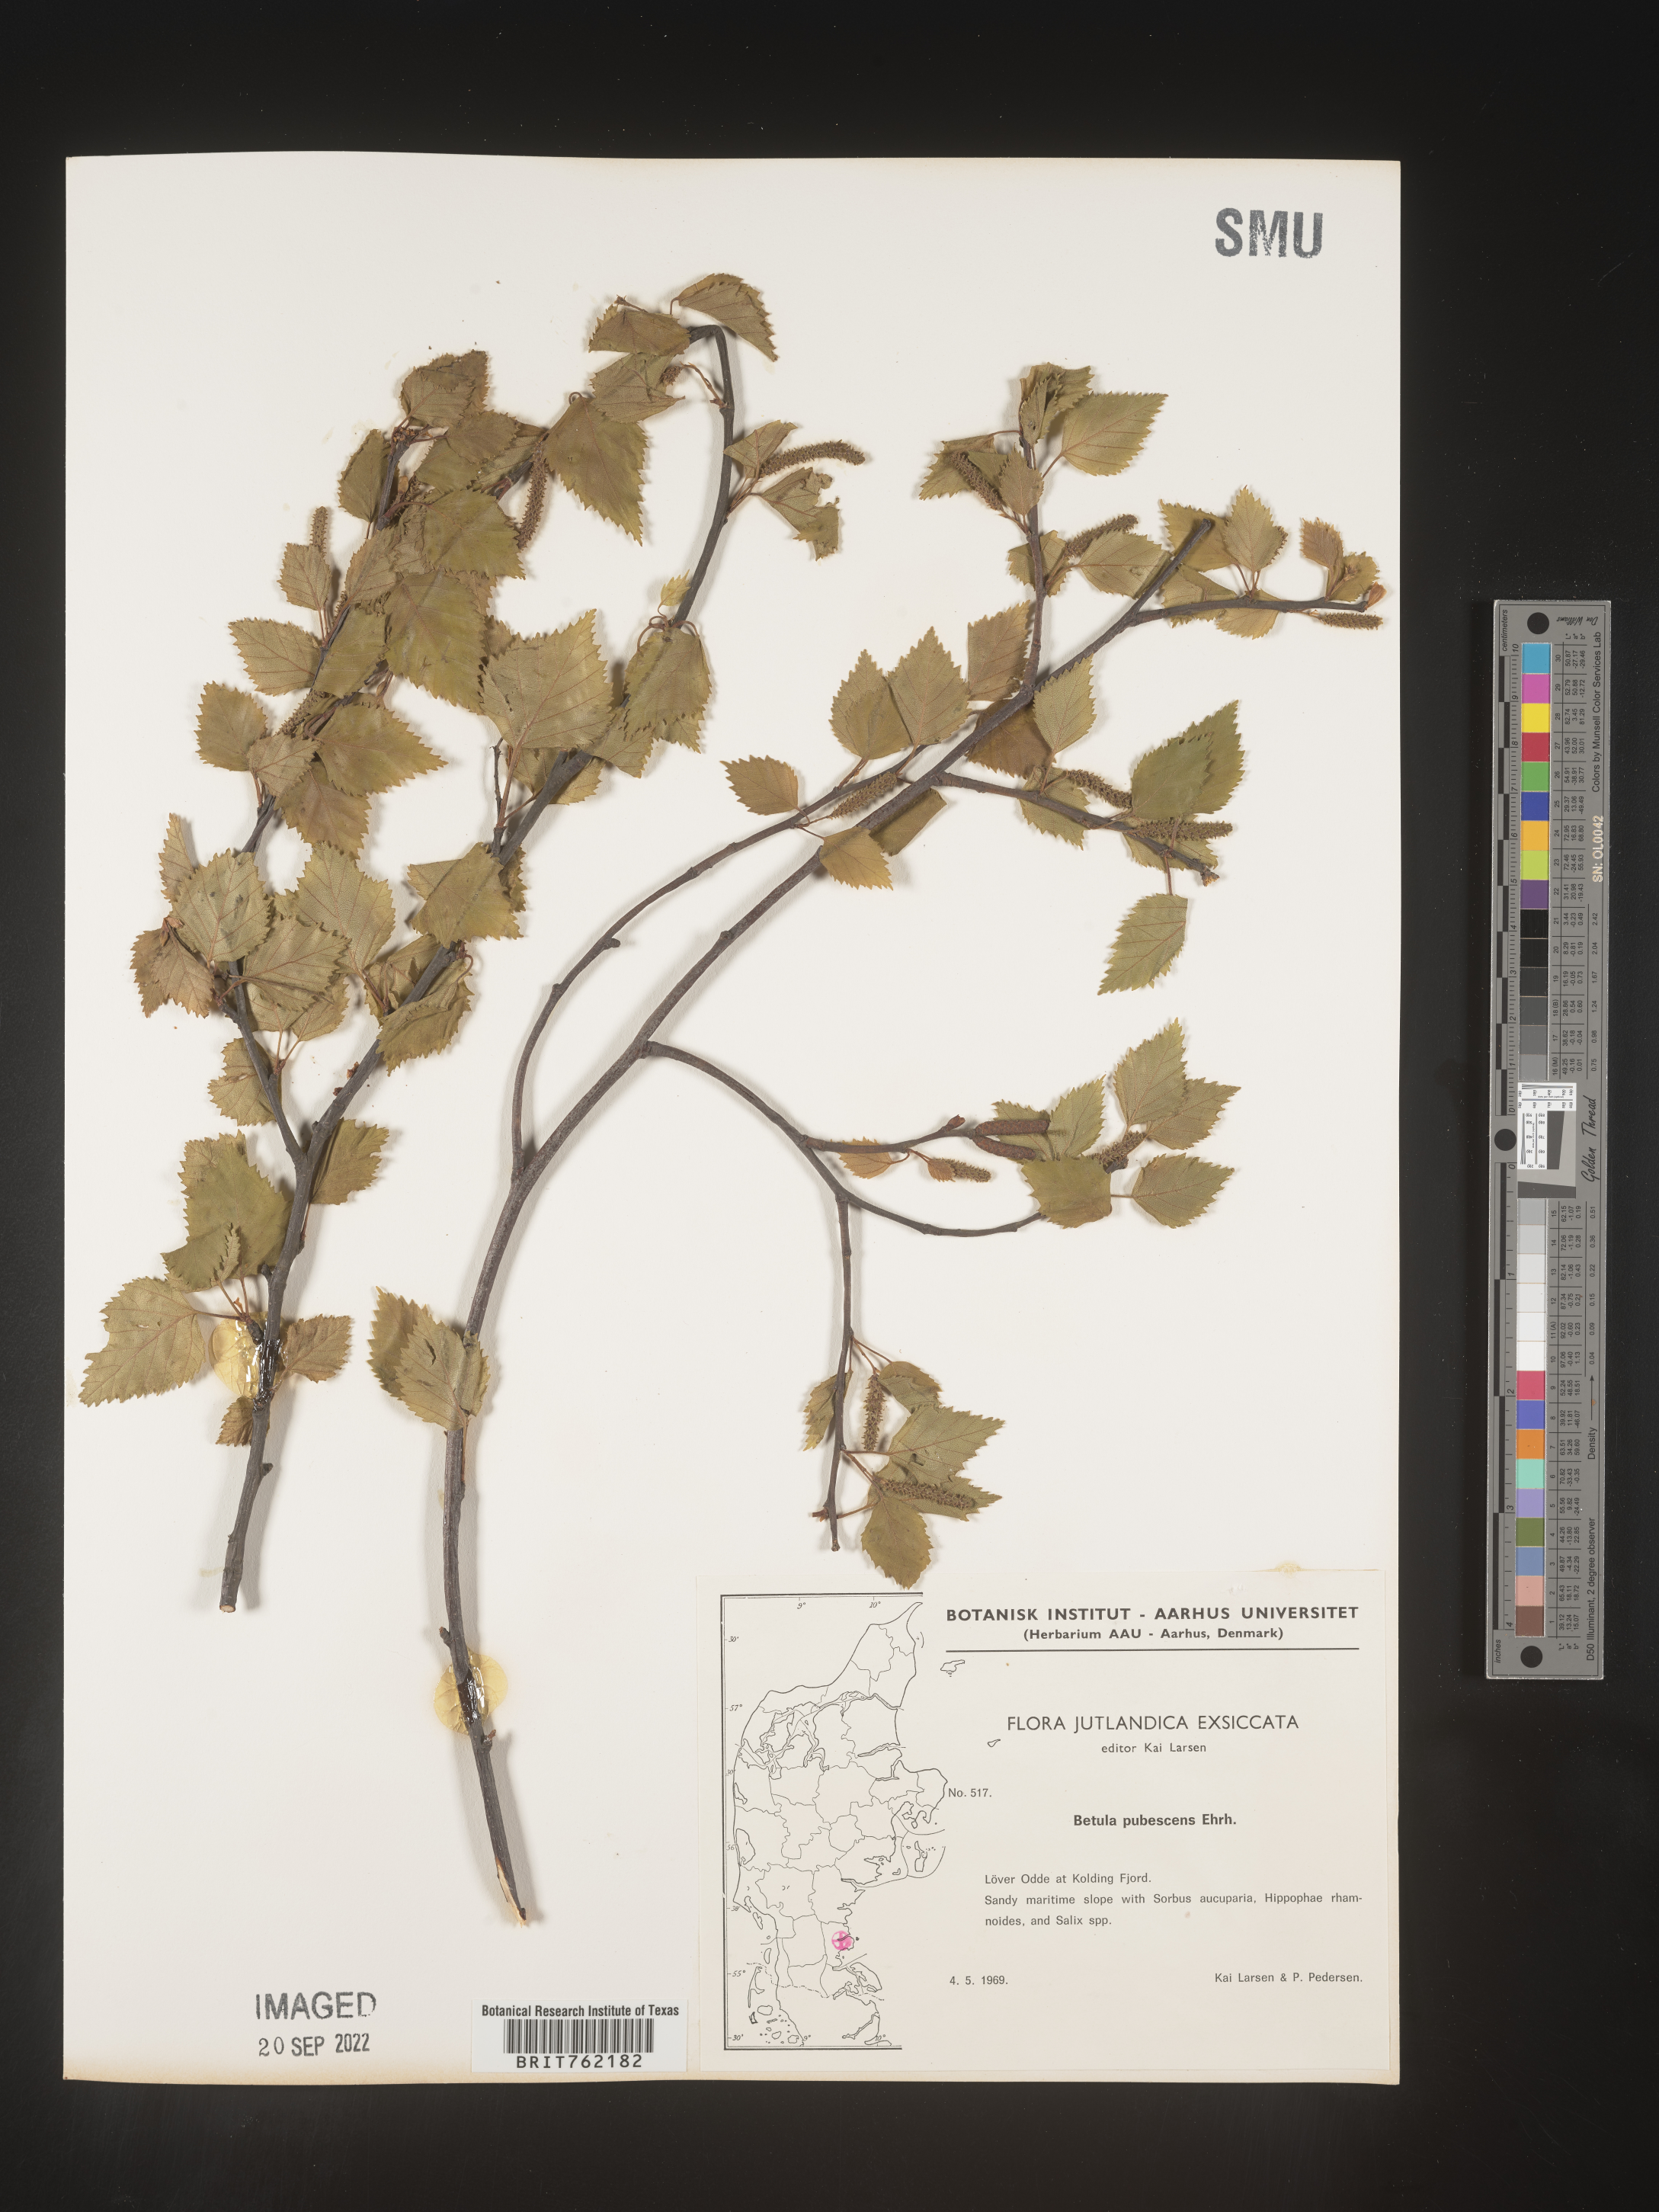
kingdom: Plantae
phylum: Tracheophyta
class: Magnoliopsida
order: Fagales
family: Betulaceae
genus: Betula
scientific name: Betula
